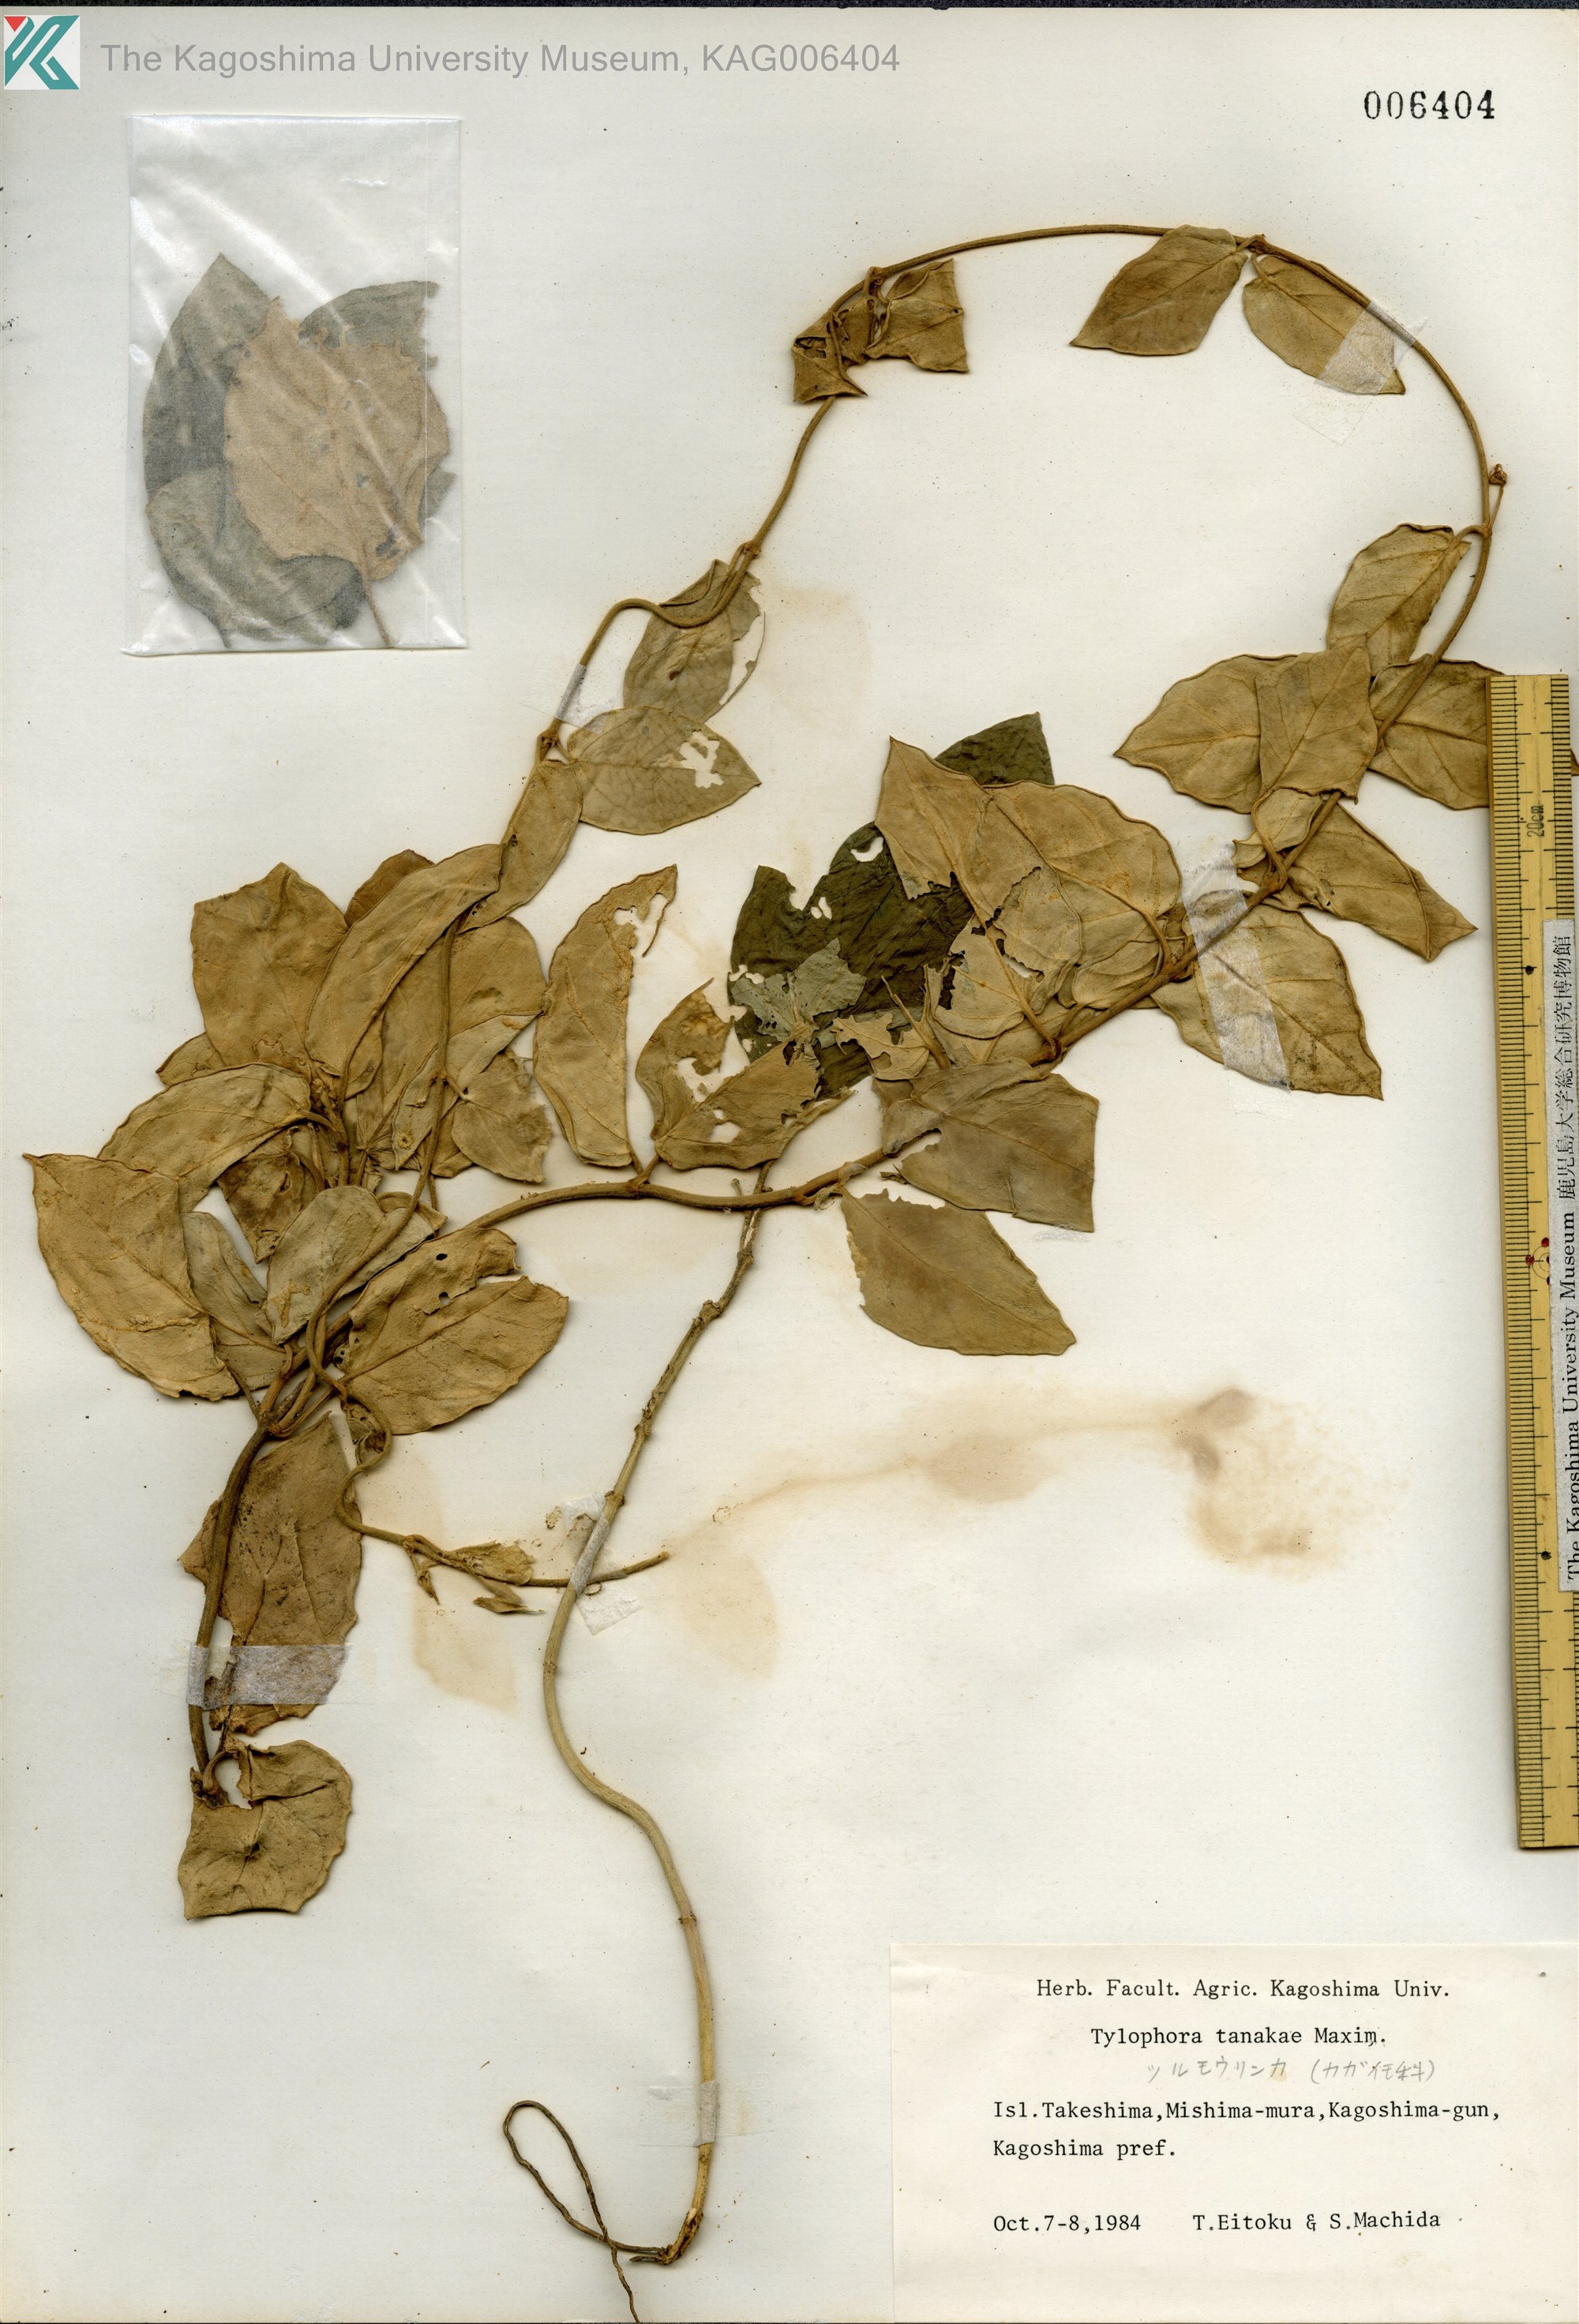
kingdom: Plantae
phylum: Tracheophyta
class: Magnoliopsida
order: Gentianales
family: Apocynaceae
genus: Vincetoxicum
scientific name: Vincetoxicum Tylophora tanakae
